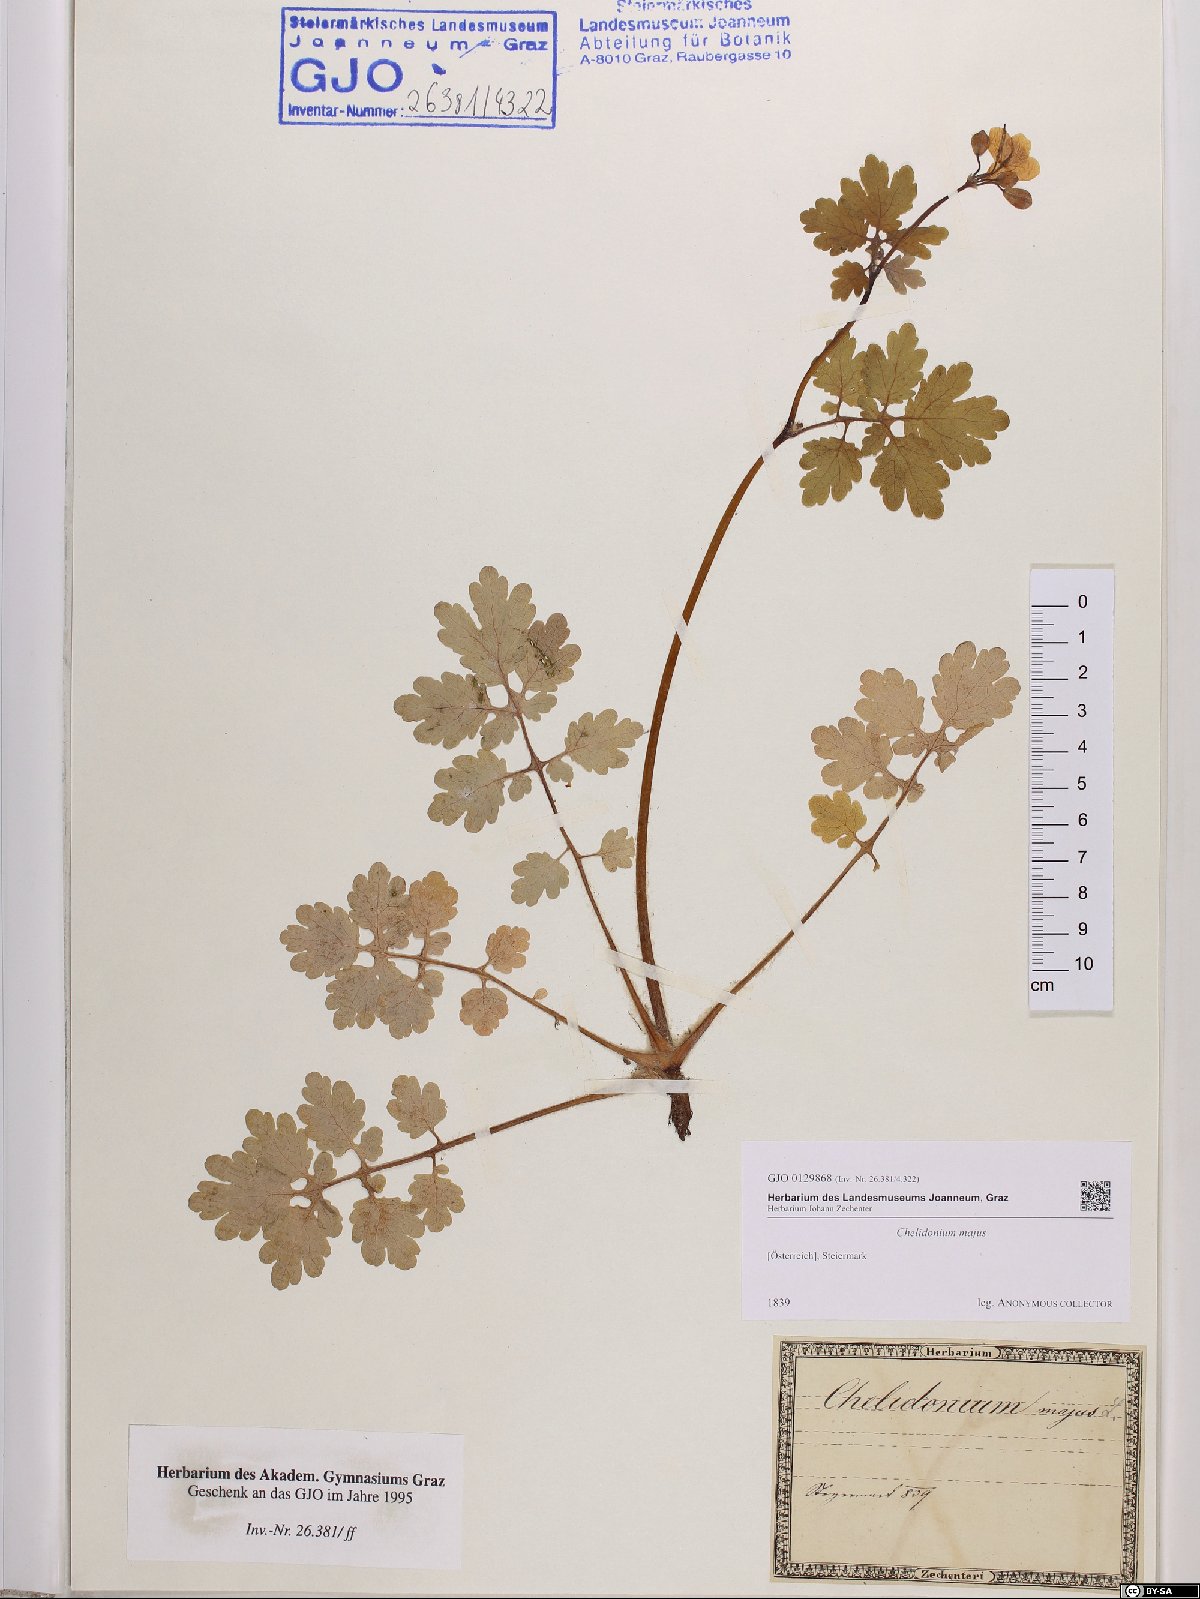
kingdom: Plantae
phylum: Tracheophyta
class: Magnoliopsida
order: Ranunculales
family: Papaveraceae
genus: Chelidonium
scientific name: Chelidonium majus
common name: Greater celandine
